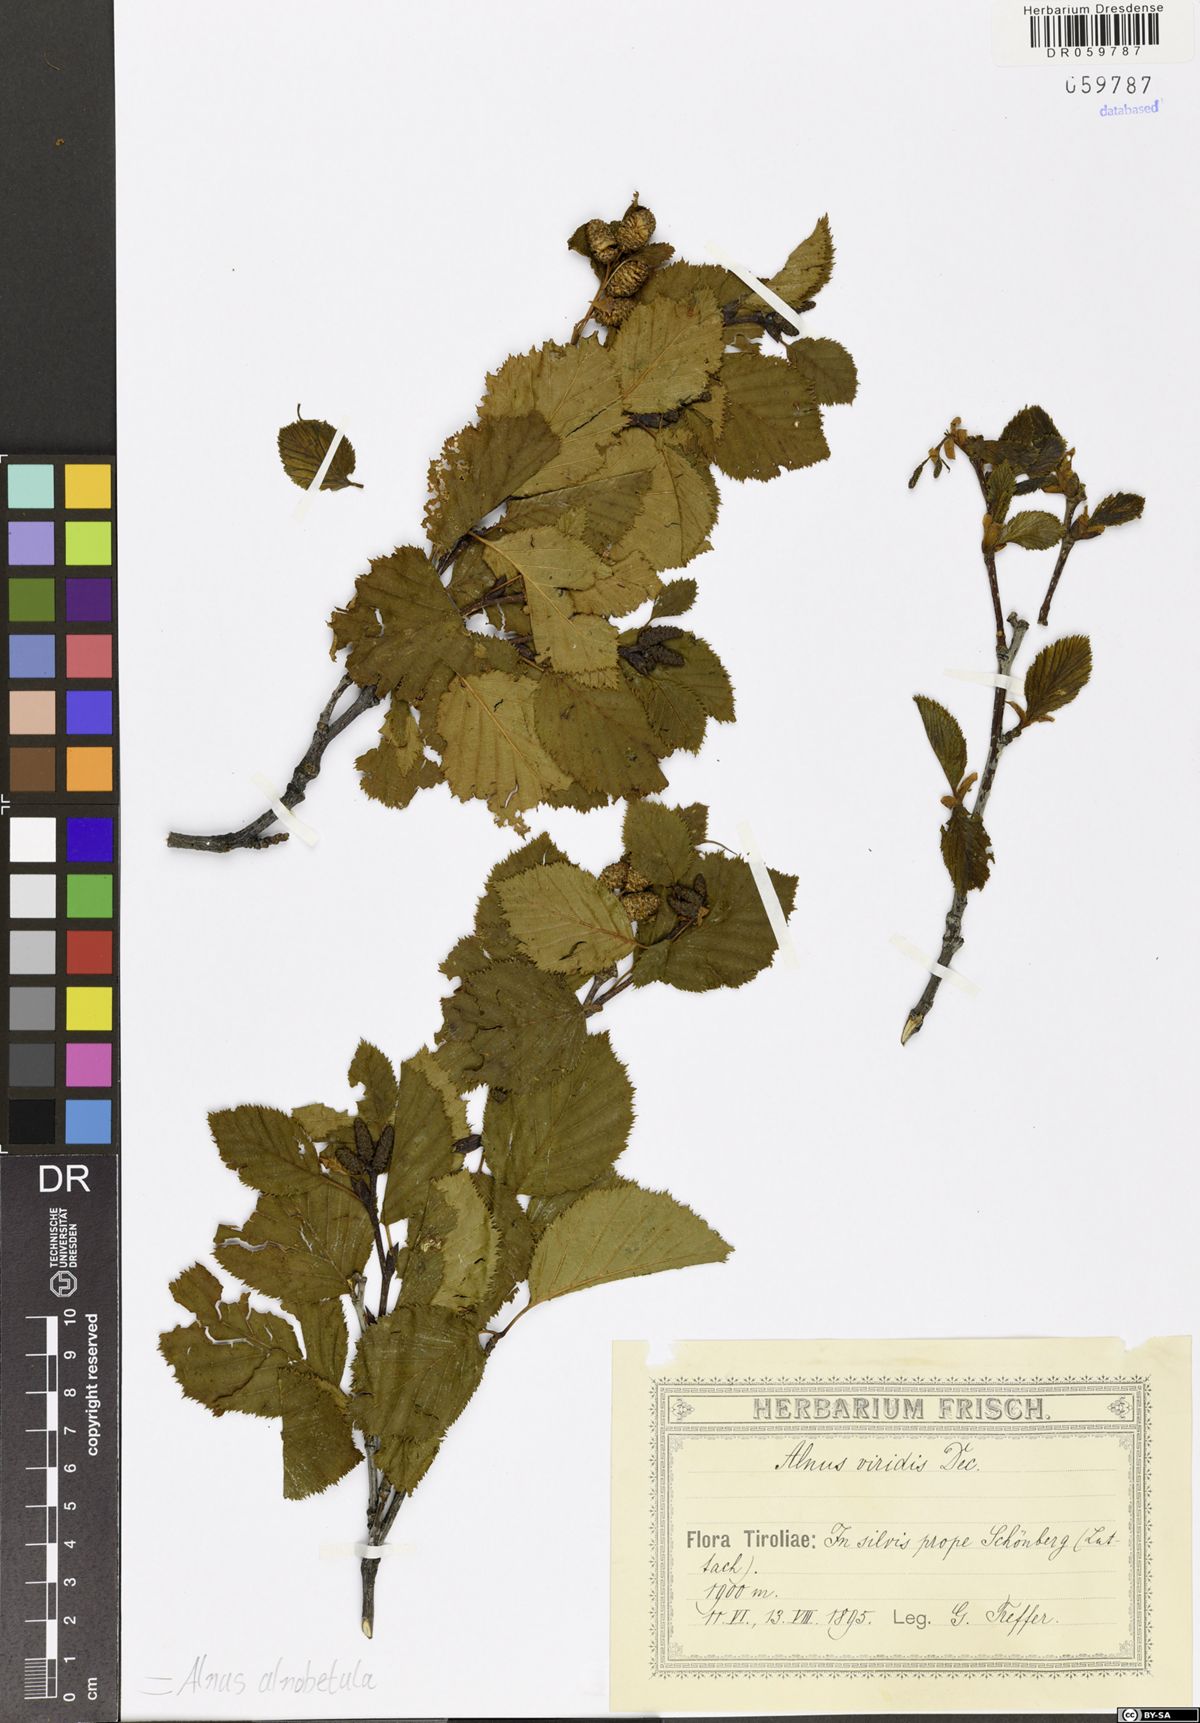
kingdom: Plantae
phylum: Tracheophyta
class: Magnoliopsida
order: Fagales
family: Betulaceae
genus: Alnus
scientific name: Alnus alnobetula
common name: Green alder
